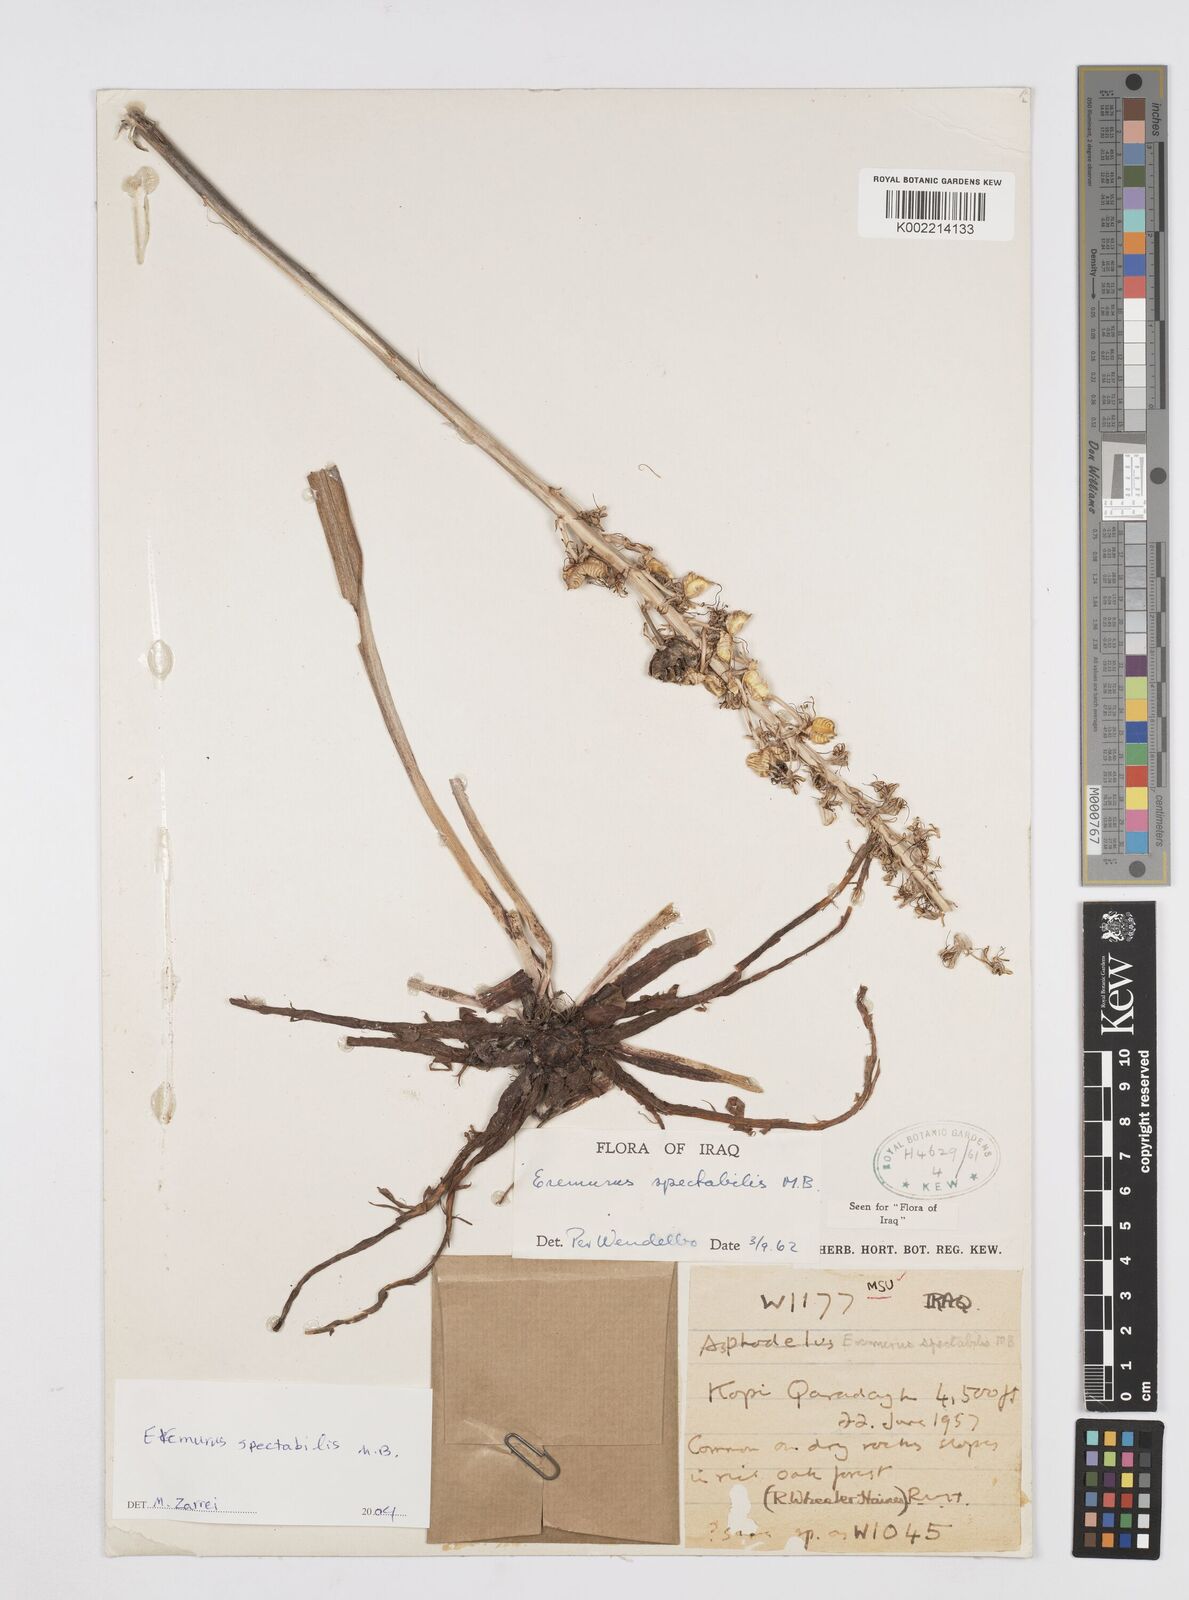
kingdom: Plantae
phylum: Tracheophyta
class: Liliopsida
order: Asparagales
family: Asphodelaceae
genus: Eremurus
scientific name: Eremurus spectabilis
